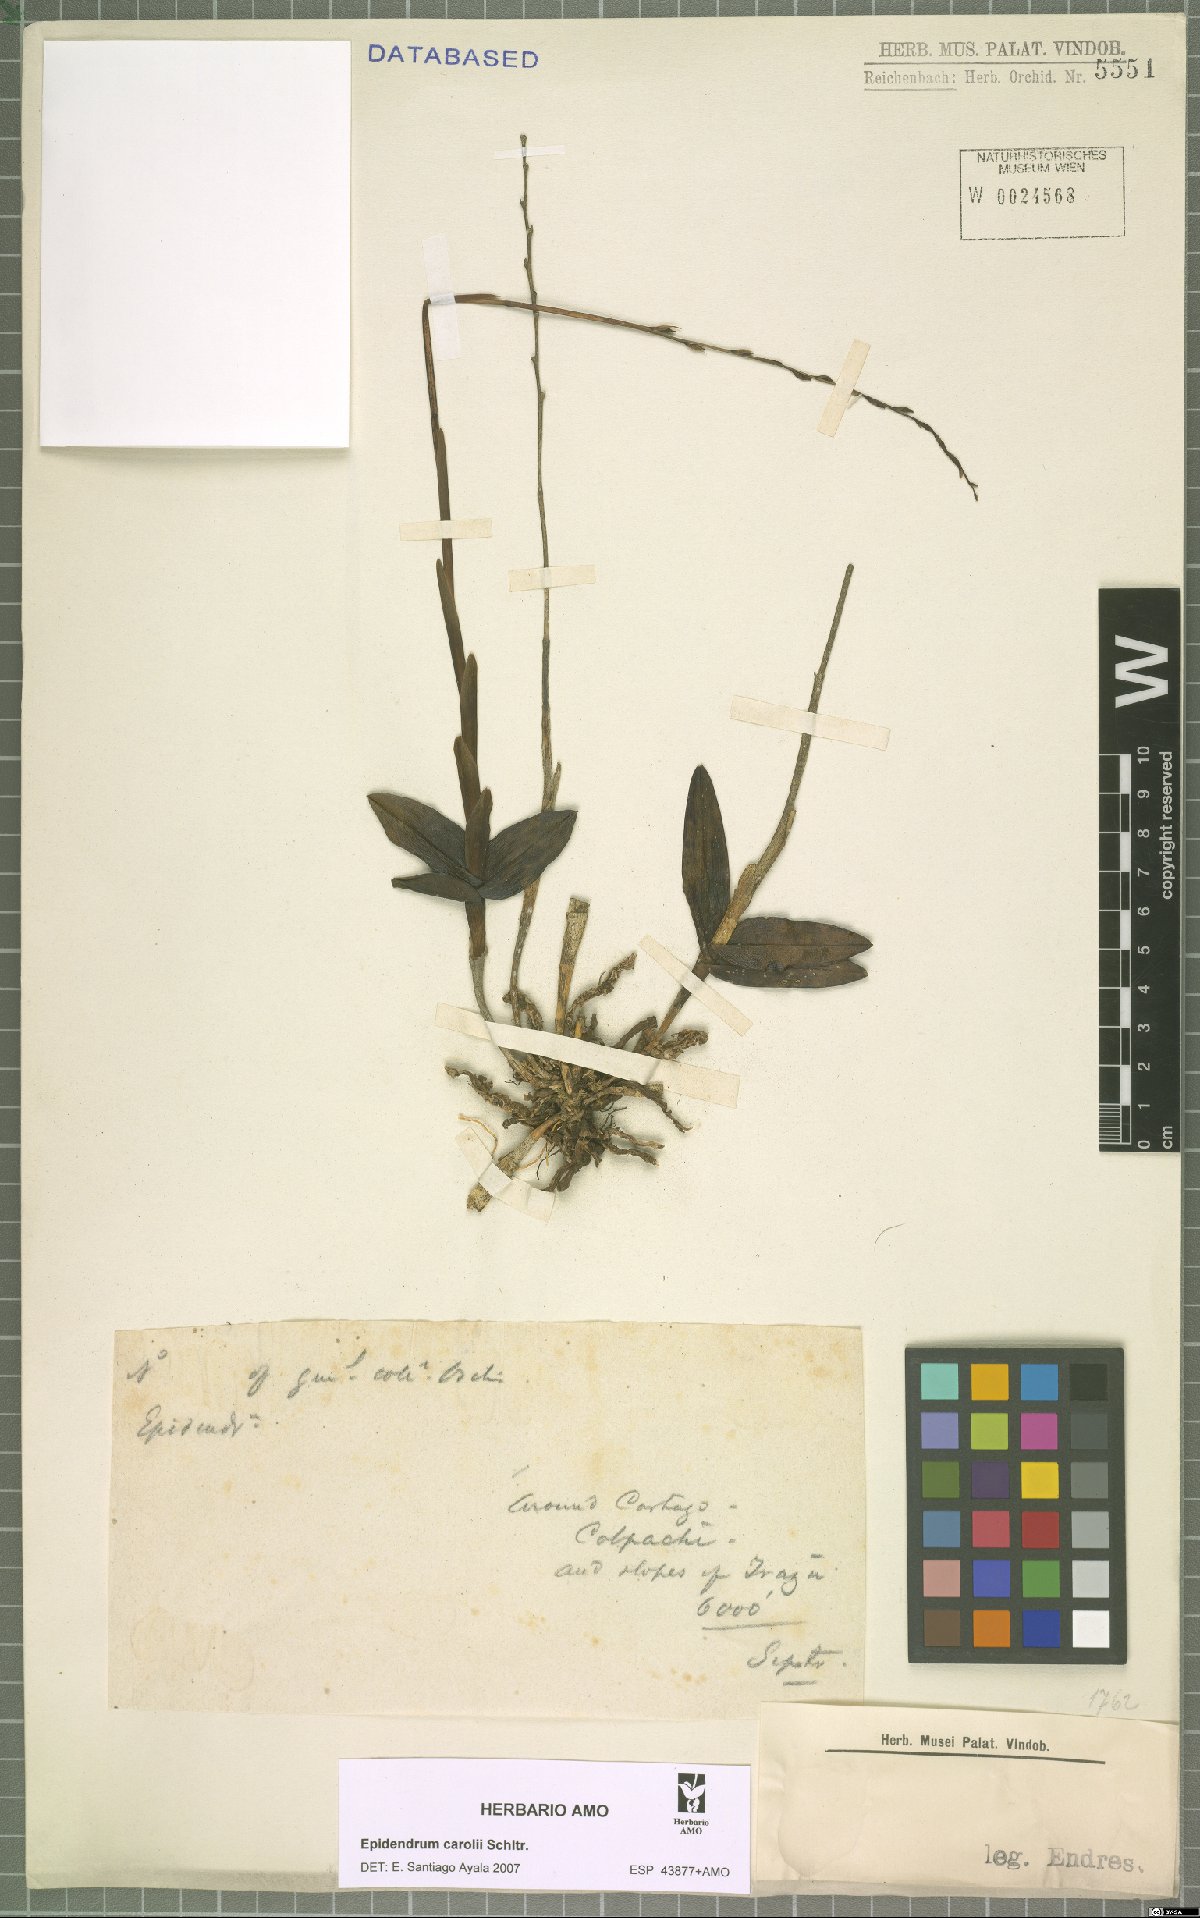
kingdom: Plantae
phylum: Tracheophyta
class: Liliopsida
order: Asparagales
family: Orchidaceae
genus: Epidendrum
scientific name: Epidendrum caroli
